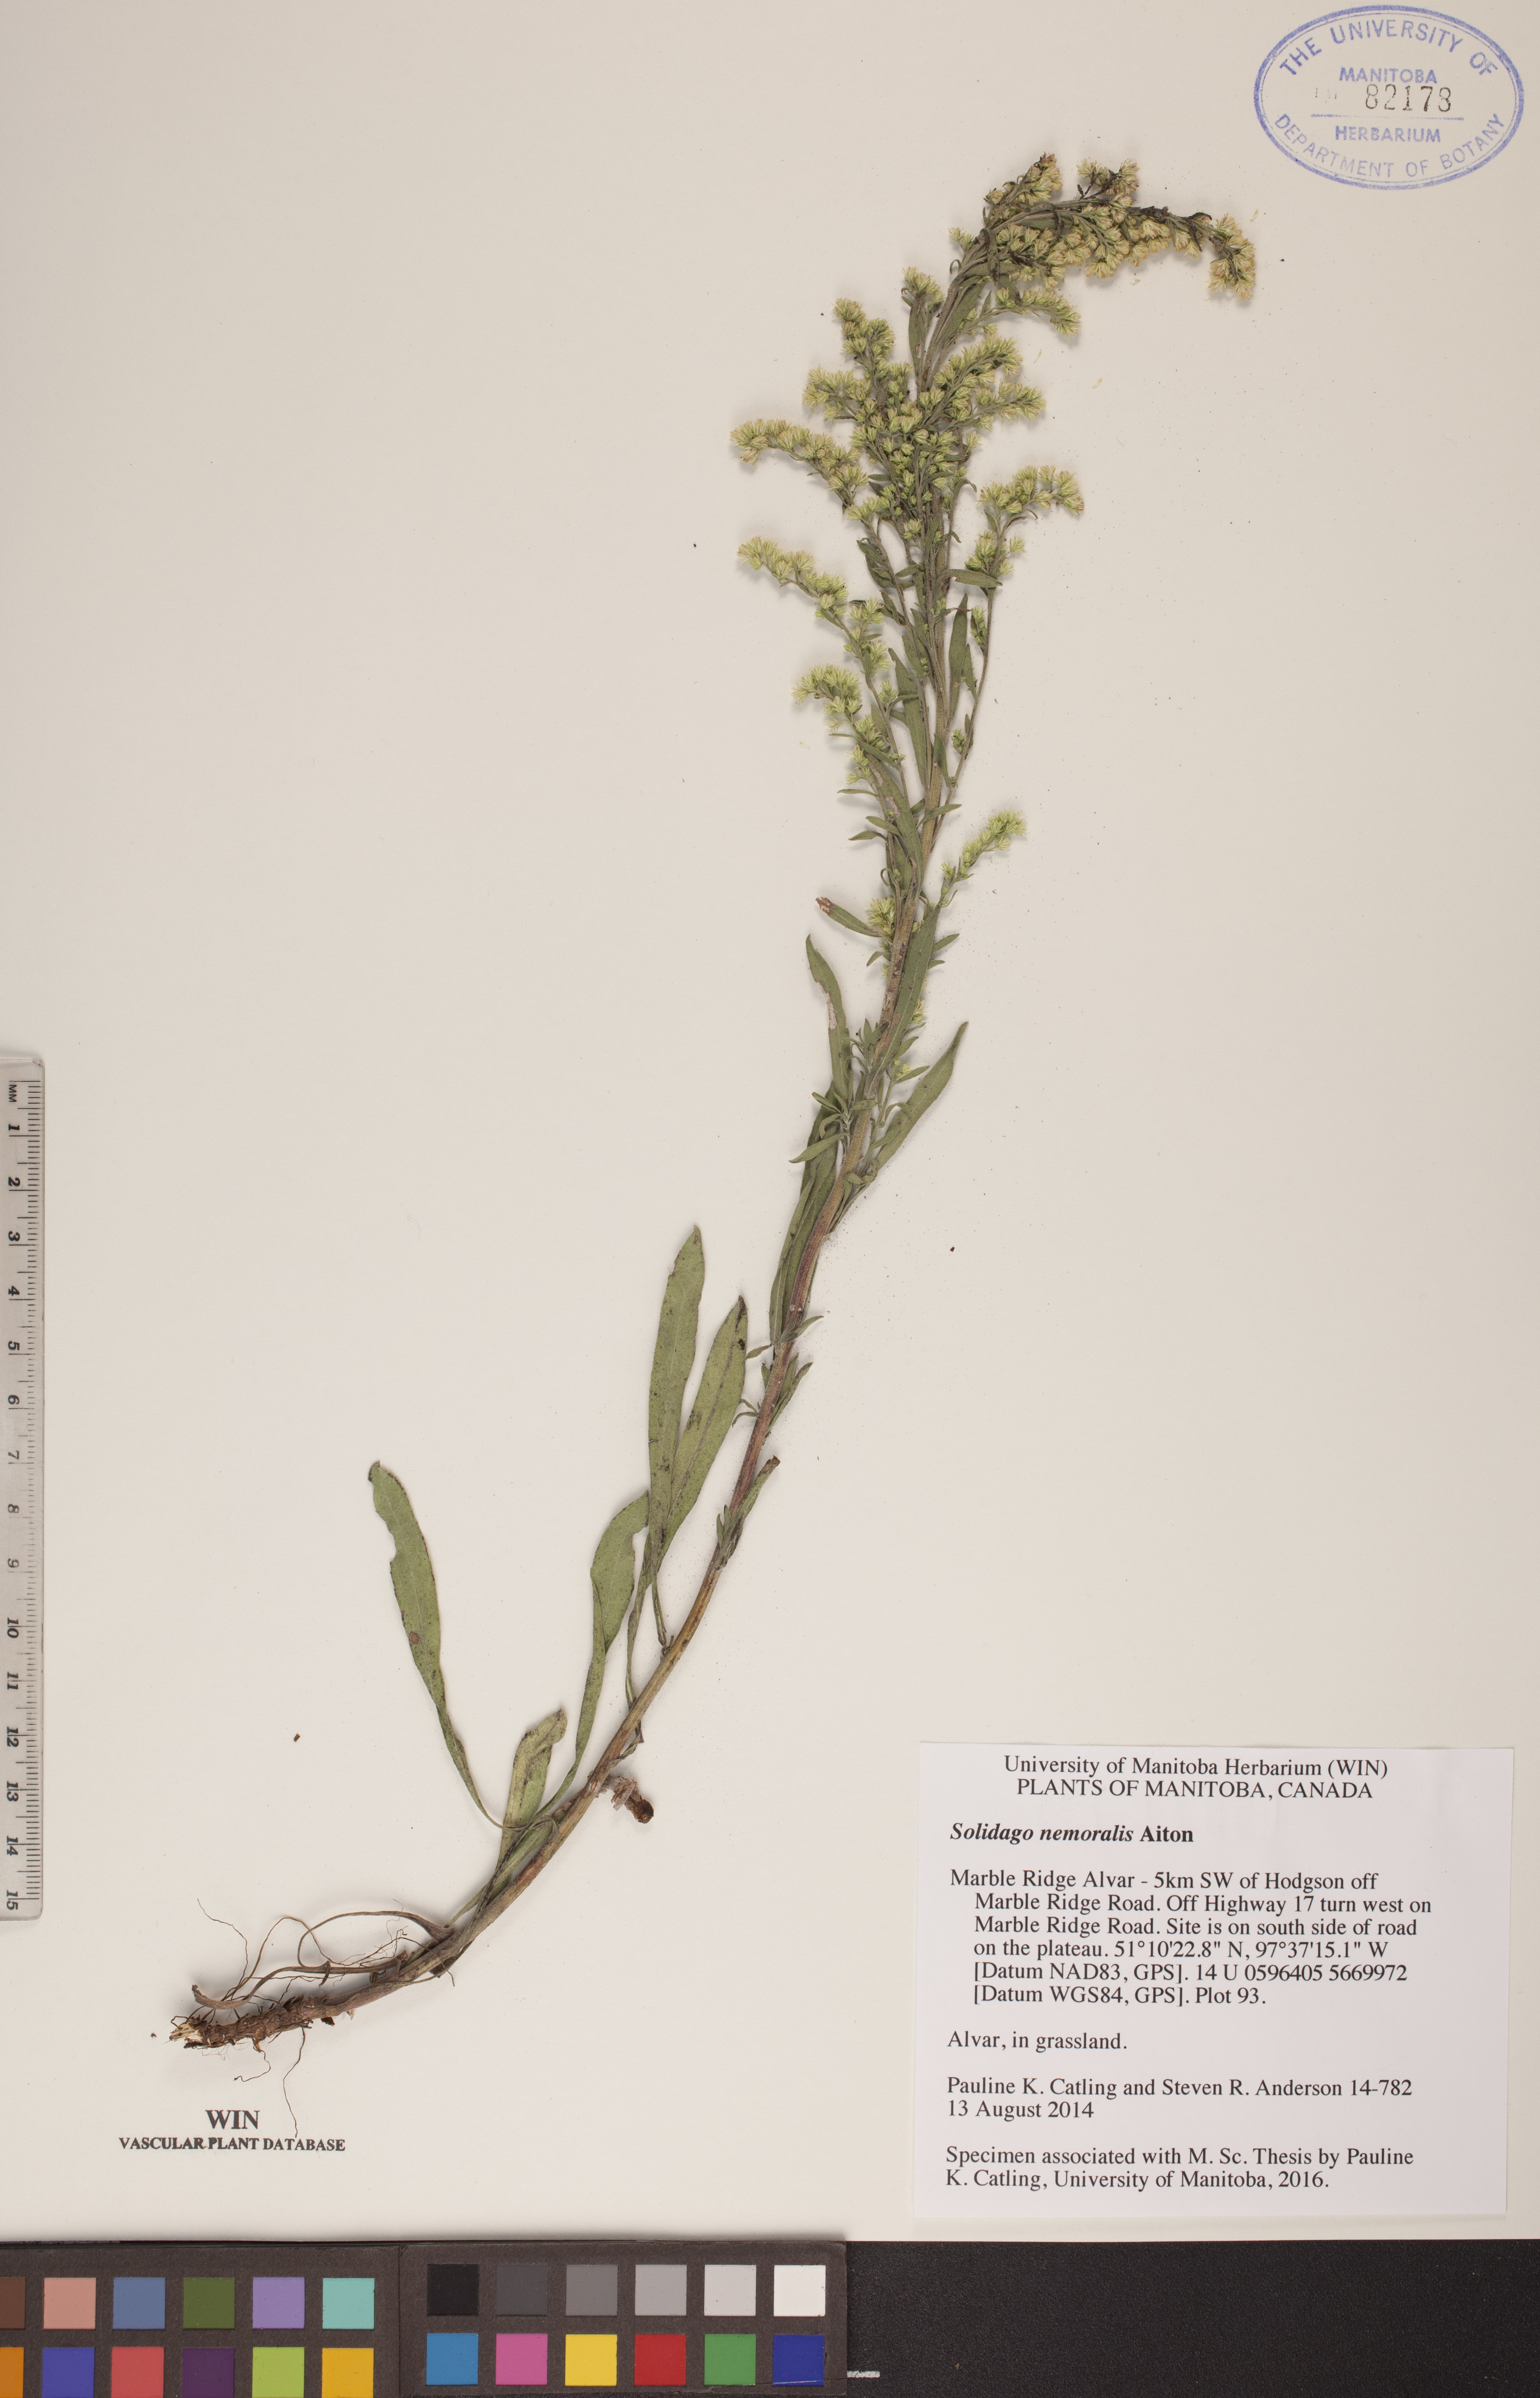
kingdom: Plantae
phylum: Tracheophyta
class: Magnoliopsida
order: Asterales
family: Asteraceae
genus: Solidago
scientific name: Solidago nemoralis
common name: Grey goldenrod
